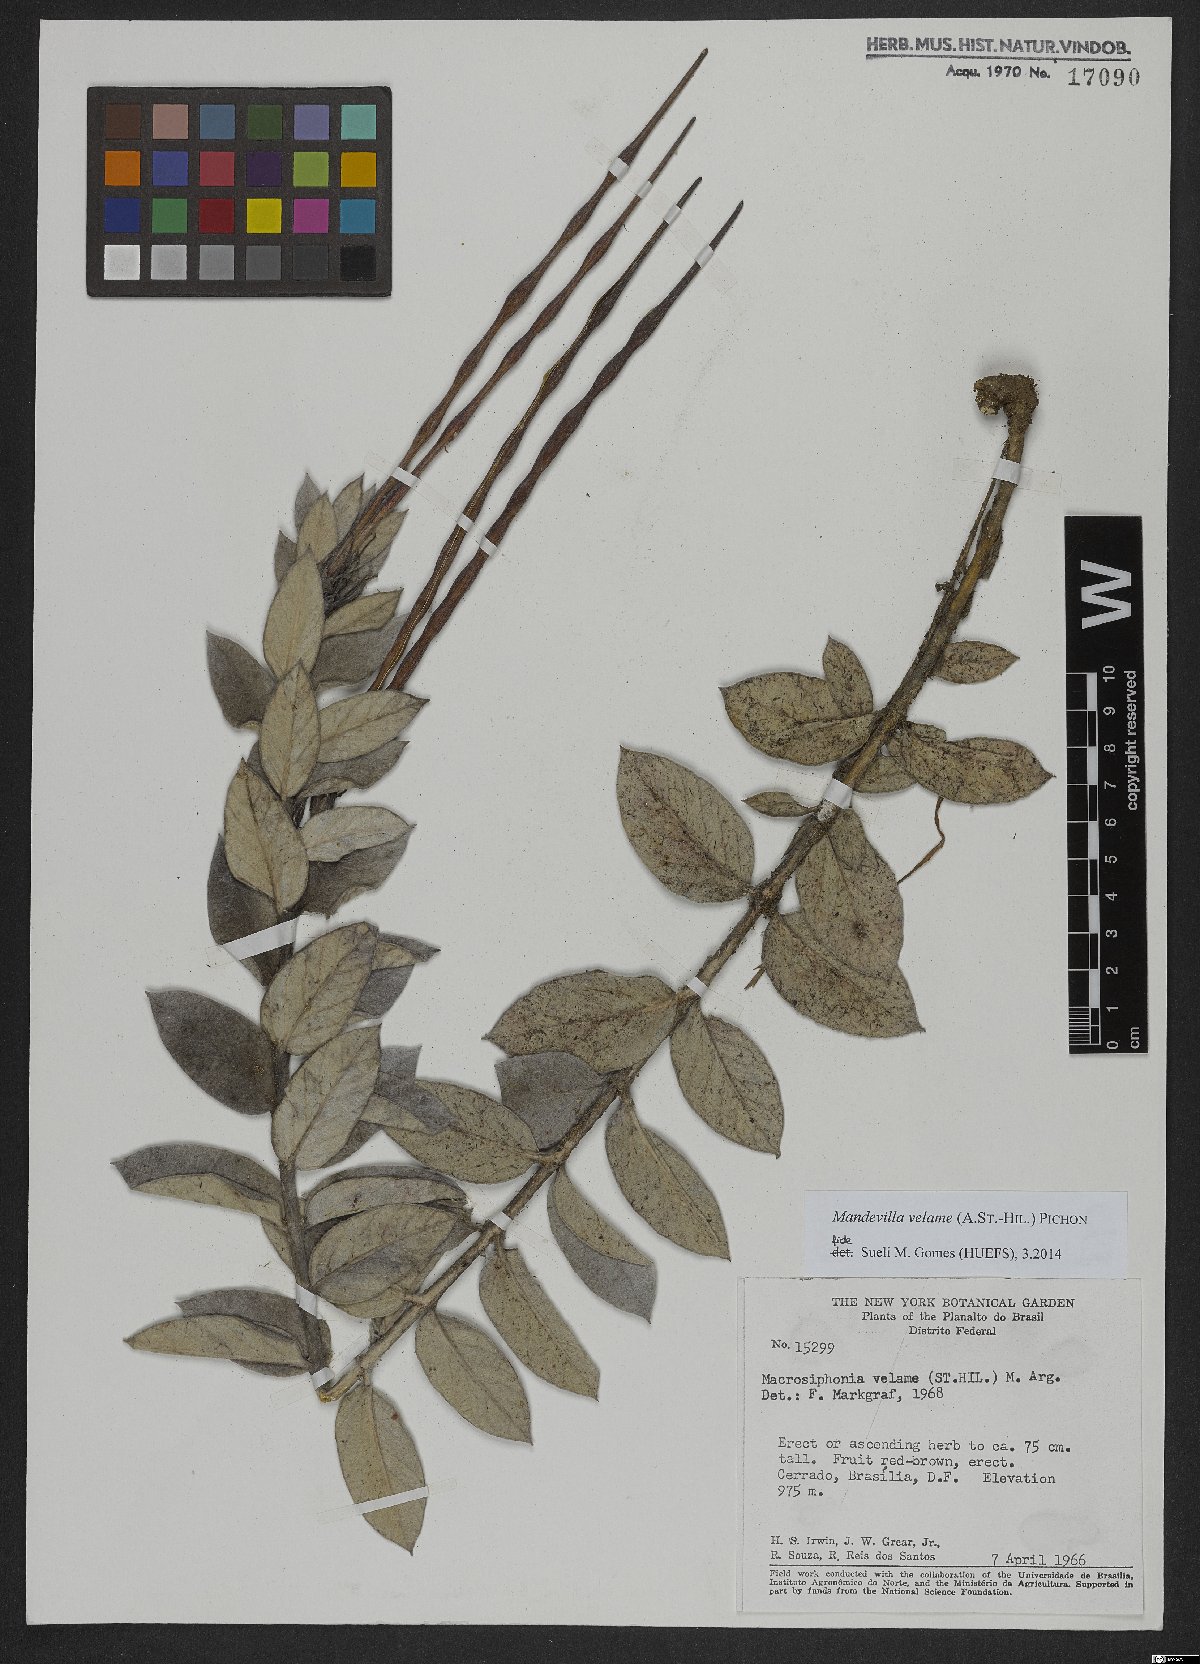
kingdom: Plantae
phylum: Tracheophyta
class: Magnoliopsida
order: Gentianales
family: Apocynaceae
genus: Mandevilla
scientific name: Mandevilla velame
